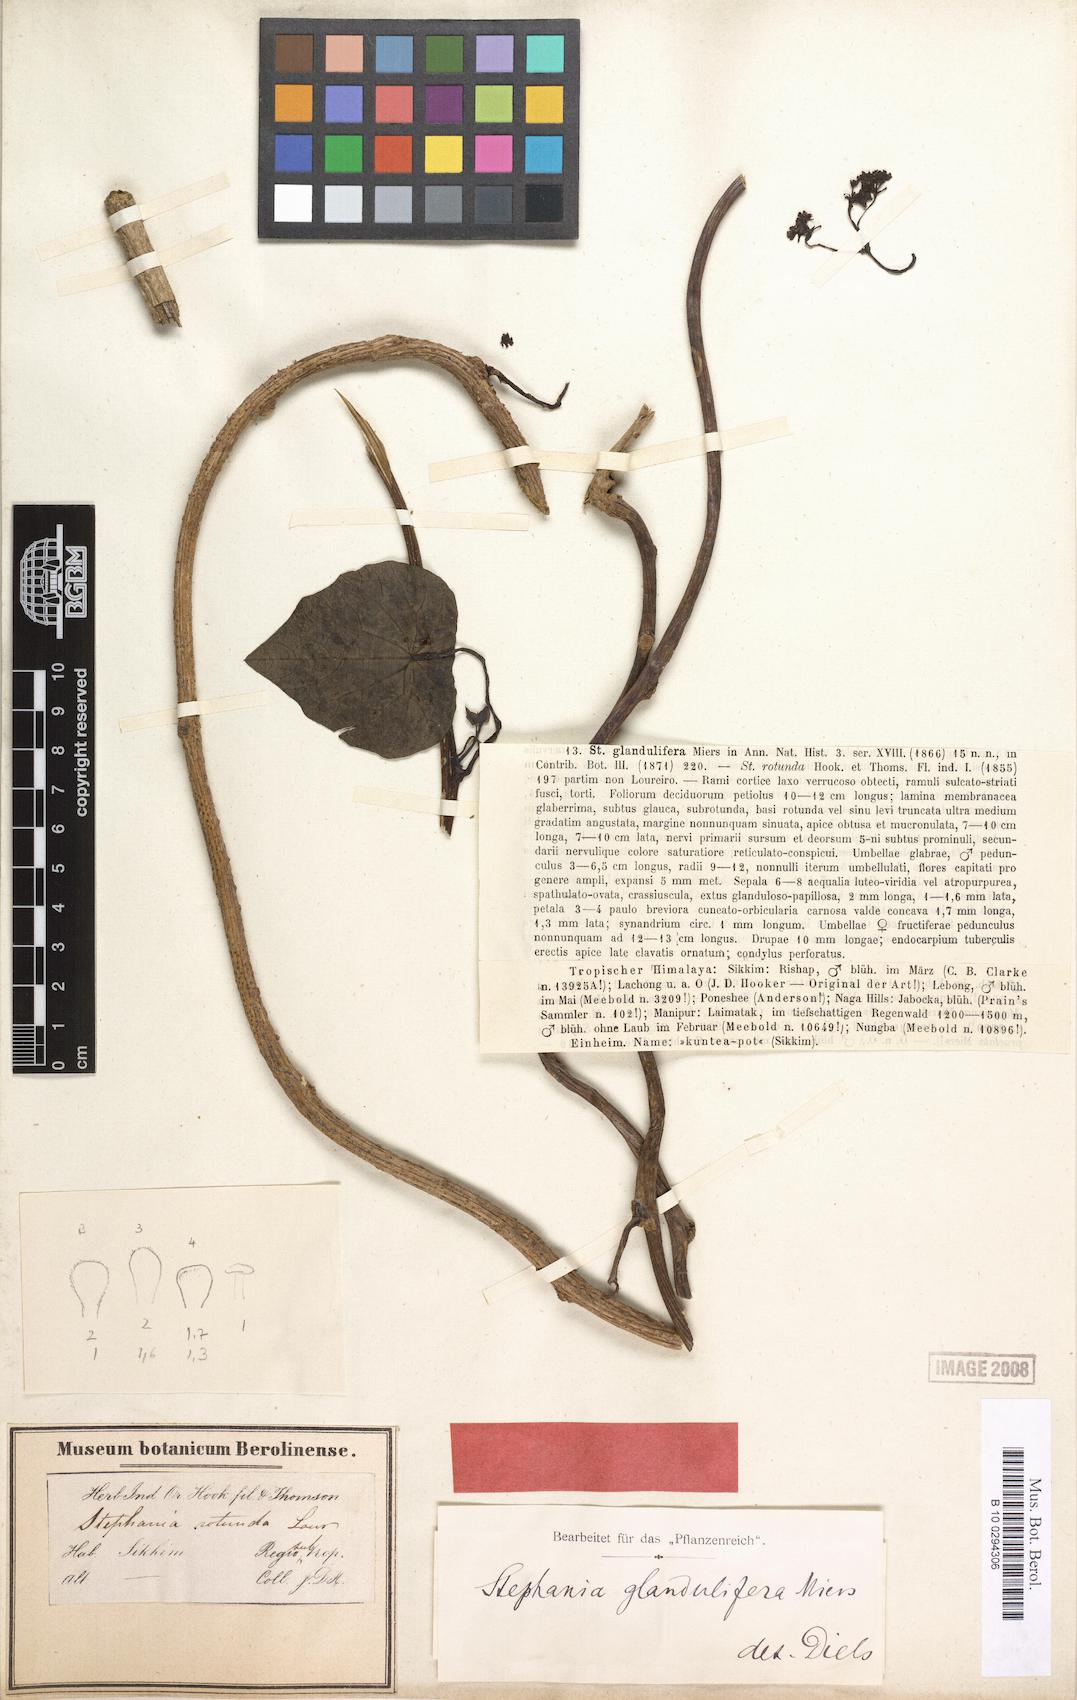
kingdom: Plantae
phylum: Tracheophyta
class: Magnoliopsida
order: Ranunculales
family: Menispermaceae
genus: Stephania
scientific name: Stephania glandulifera
